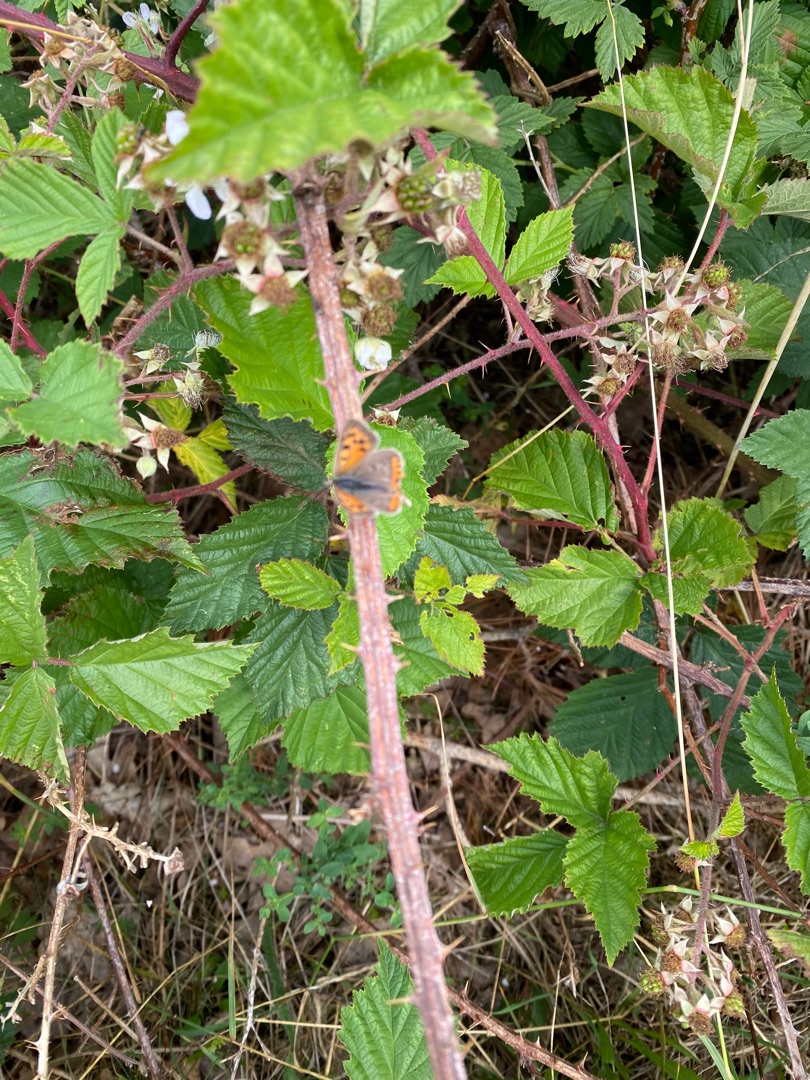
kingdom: Animalia
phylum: Arthropoda
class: Insecta
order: Lepidoptera
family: Lycaenidae
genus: Lycaena
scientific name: Lycaena phlaeas
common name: Lille ildfugl
